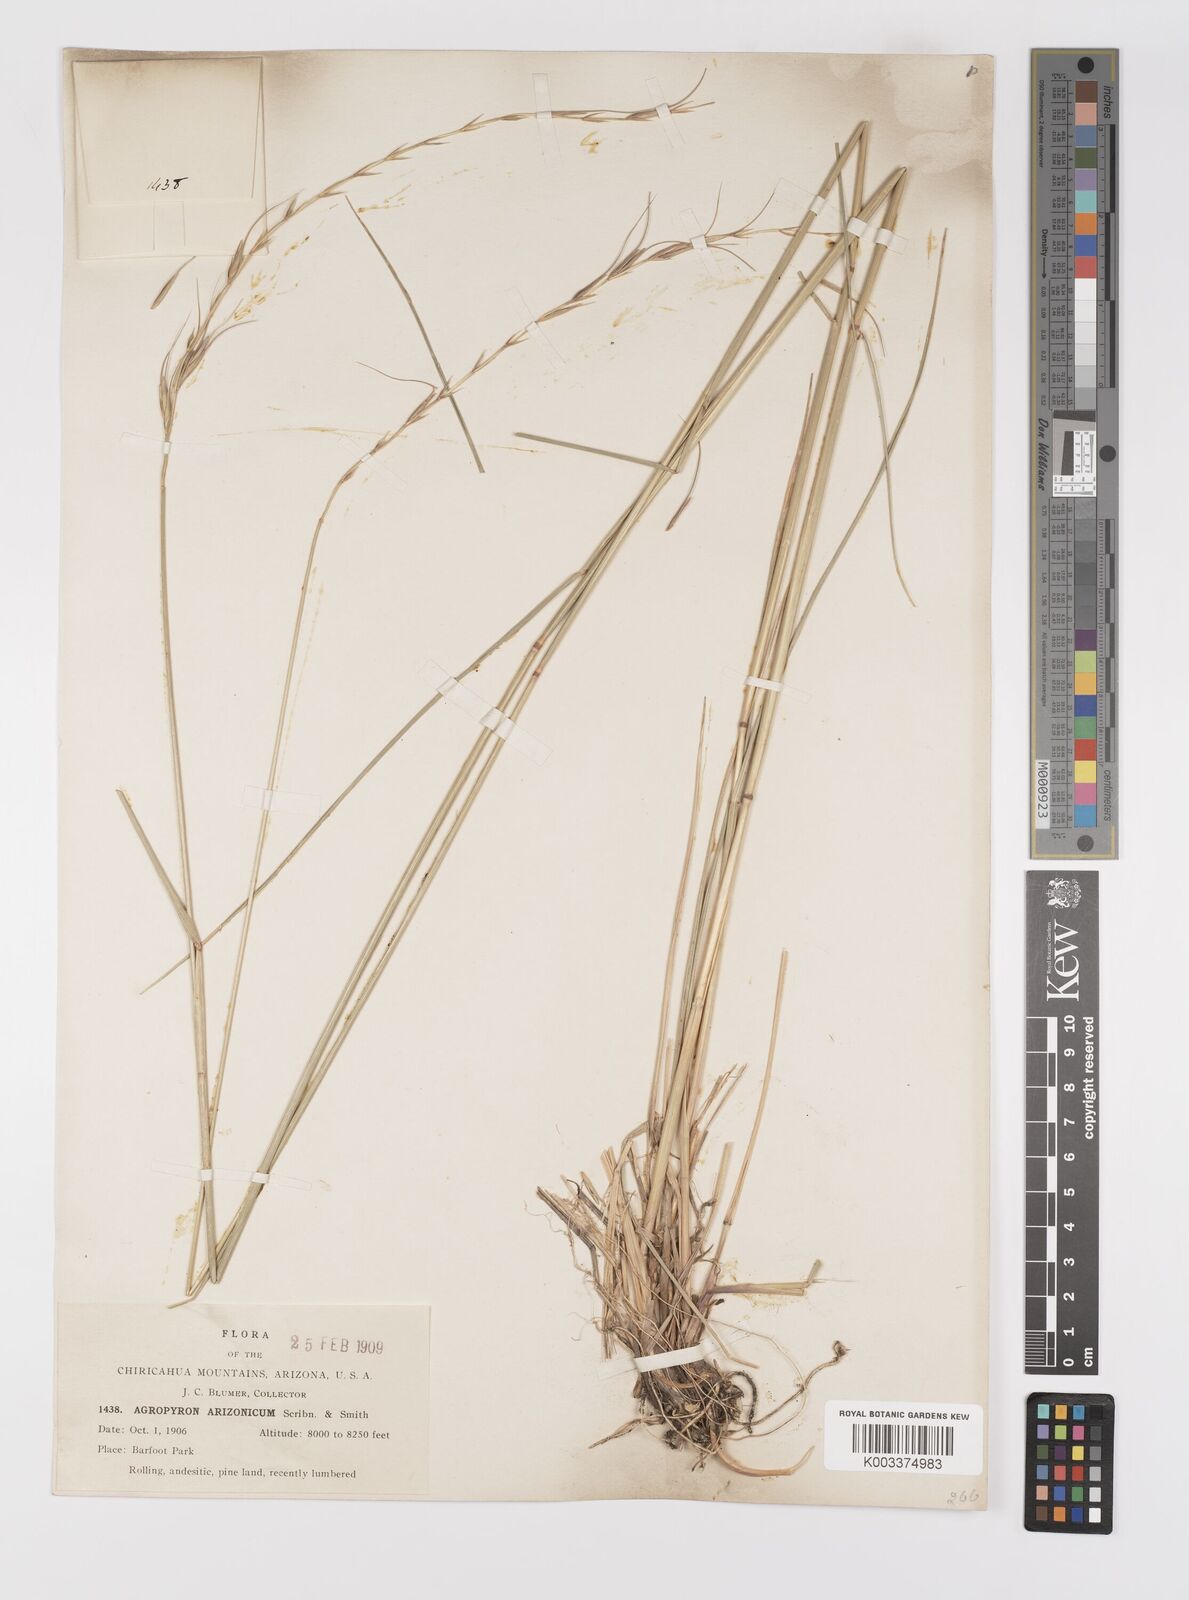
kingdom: Plantae
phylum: Tracheophyta
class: Liliopsida
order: Poales
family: Poaceae
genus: Elymus
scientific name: Elymus arizonicus
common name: Arizona wheatgrass
